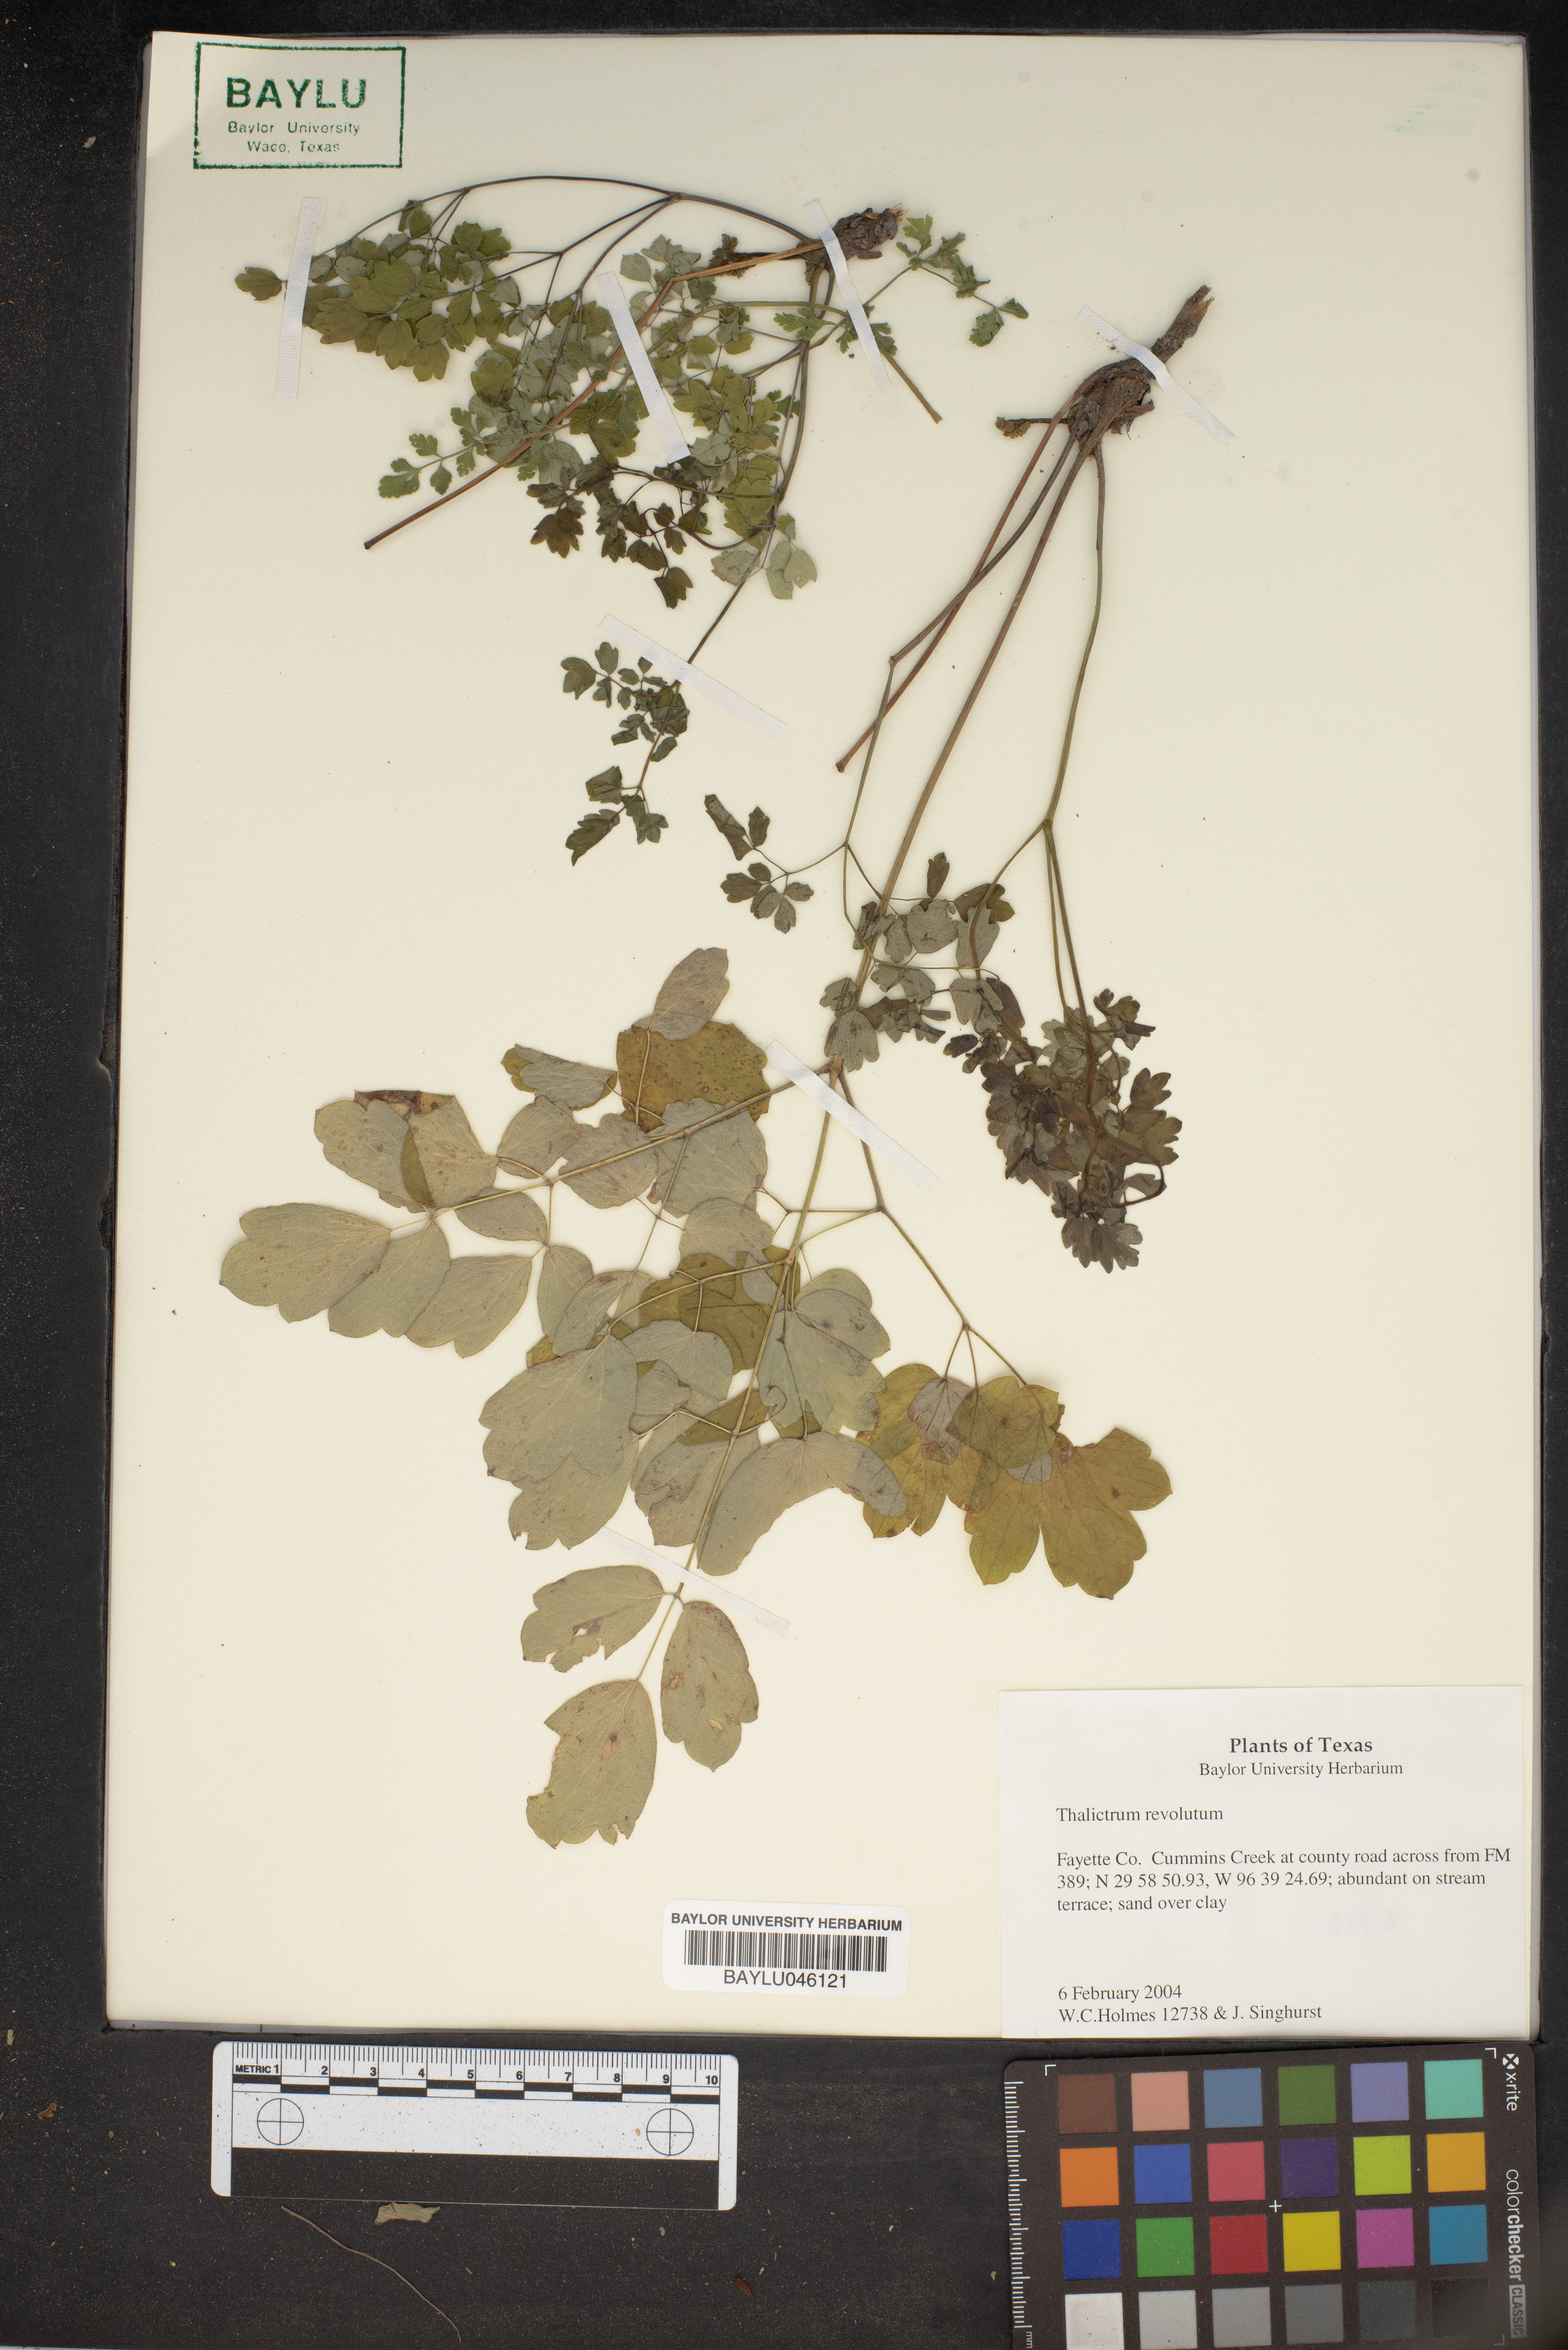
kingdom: Plantae
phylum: Tracheophyta
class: Magnoliopsida
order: Ranunculales
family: Ranunculaceae
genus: Thalictrum
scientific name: Thalictrum revolutum
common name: Waxy meadow-rue
